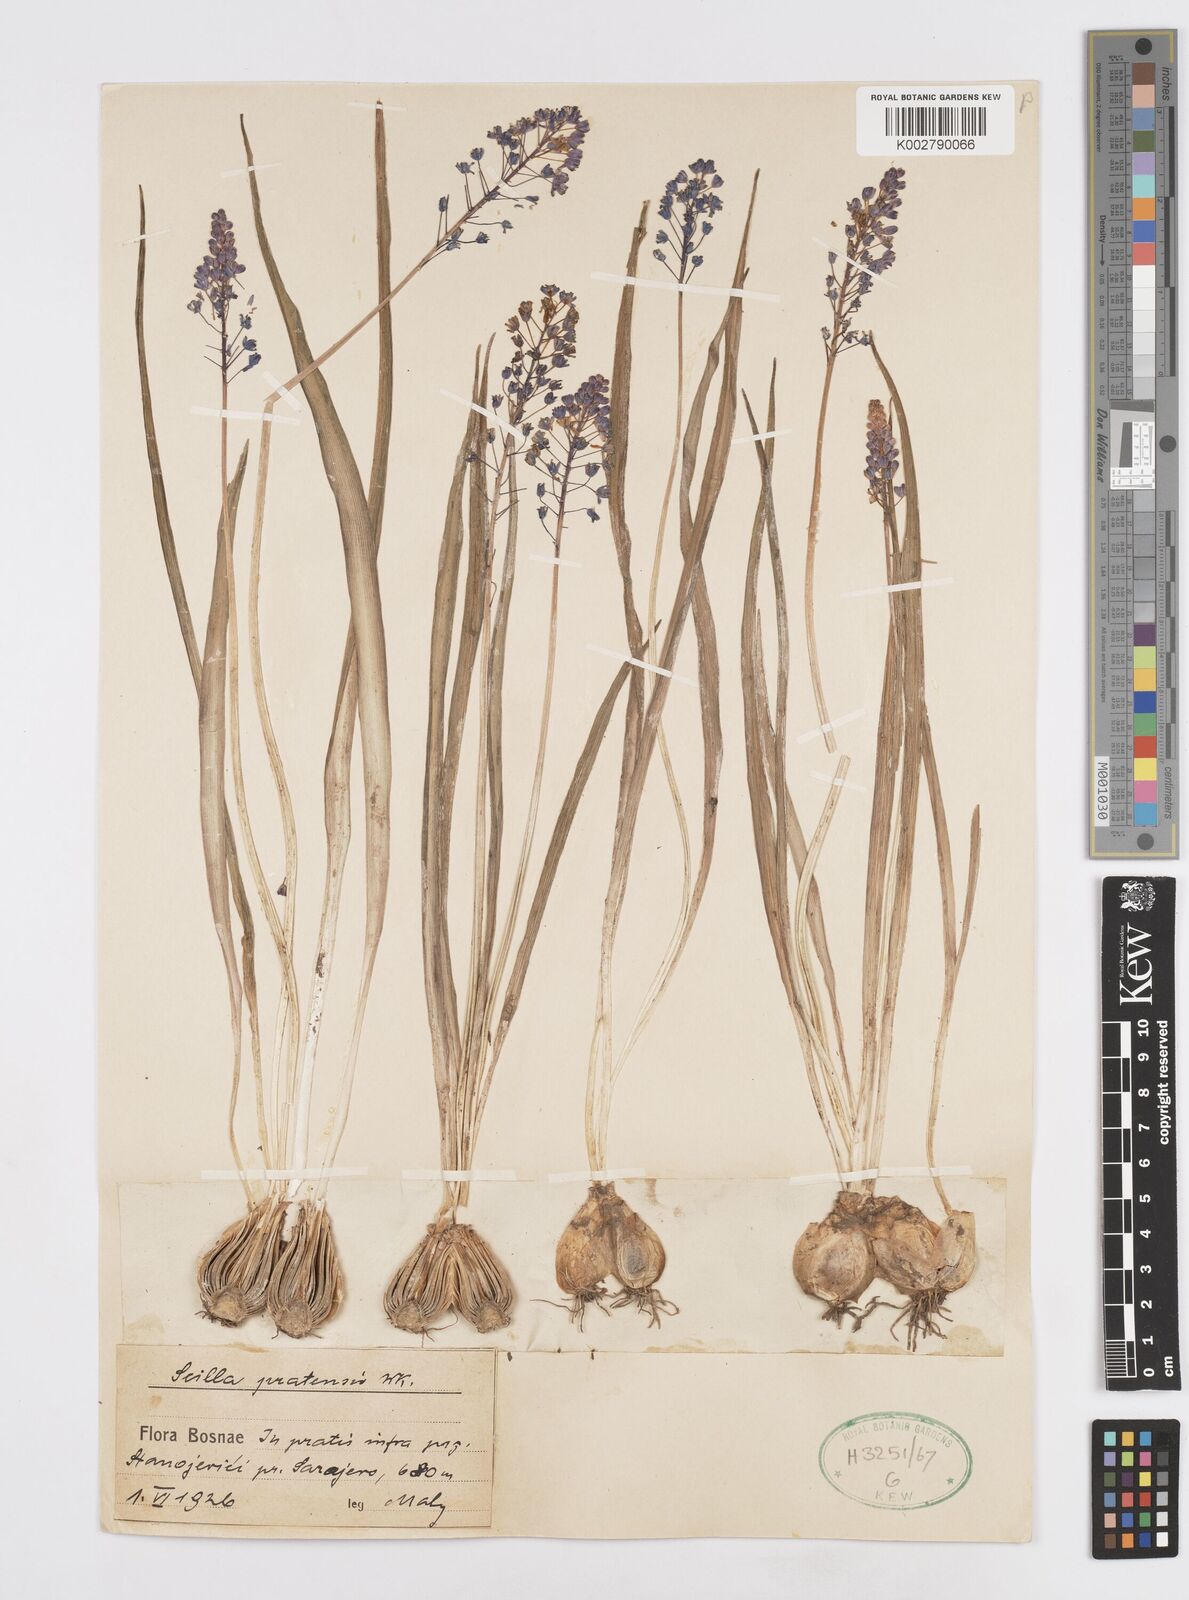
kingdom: Plantae
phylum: Tracheophyta
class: Liliopsida
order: Asparagales
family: Asparagaceae
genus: Scilla
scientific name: Scilla litardierei
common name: Amethyst meadow squill
